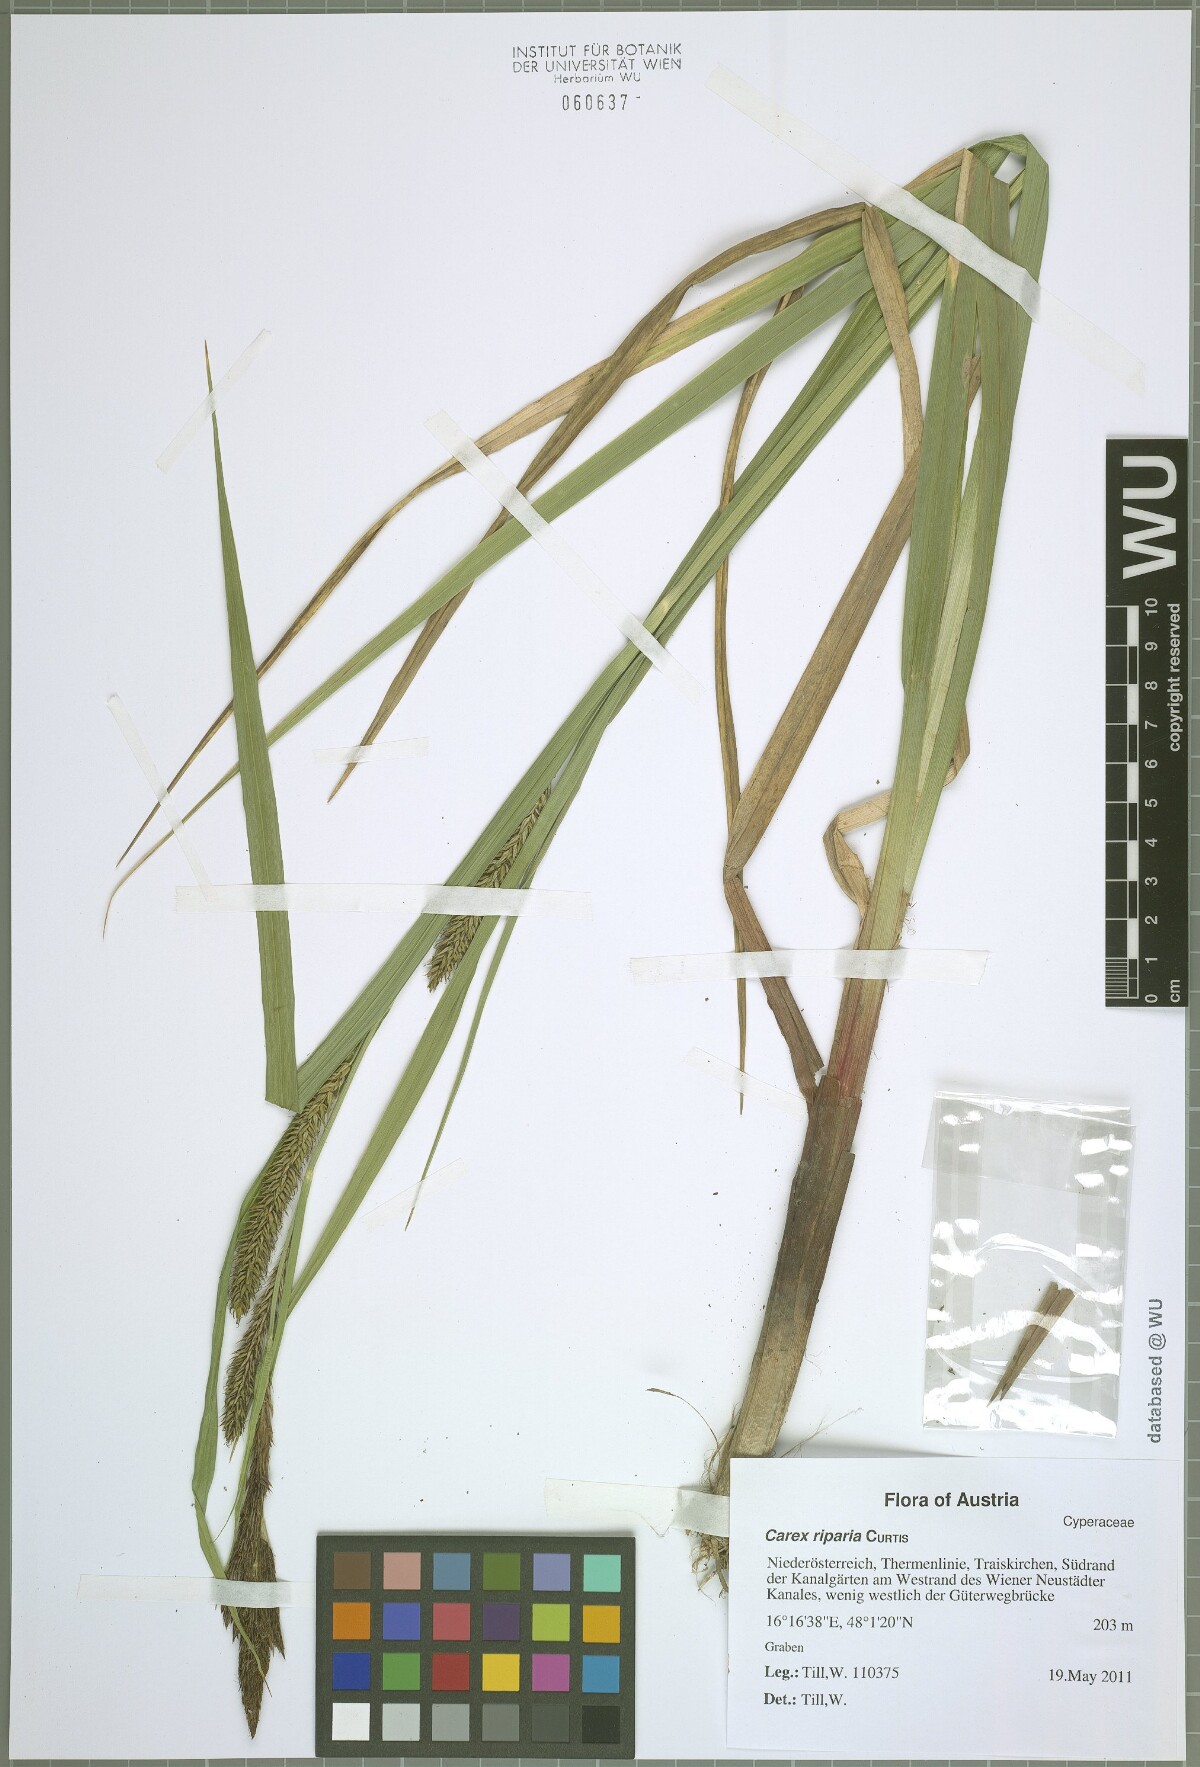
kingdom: Plantae
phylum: Tracheophyta
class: Liliopsida
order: Poales
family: Cyperaceae
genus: Carex
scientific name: Carex riparia
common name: Greater pond-sedge
